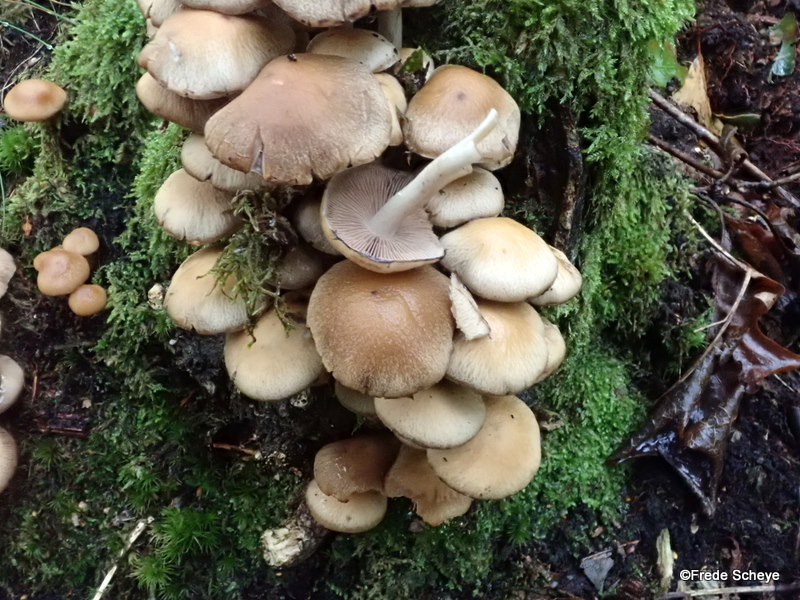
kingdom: Fungi
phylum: Basidiomycota
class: Agaricomycetes
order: Agaricales
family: Psathyrellaceae
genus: Psathyrella
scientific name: Psathyrella piluliformis
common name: lysstokket mørkhat
